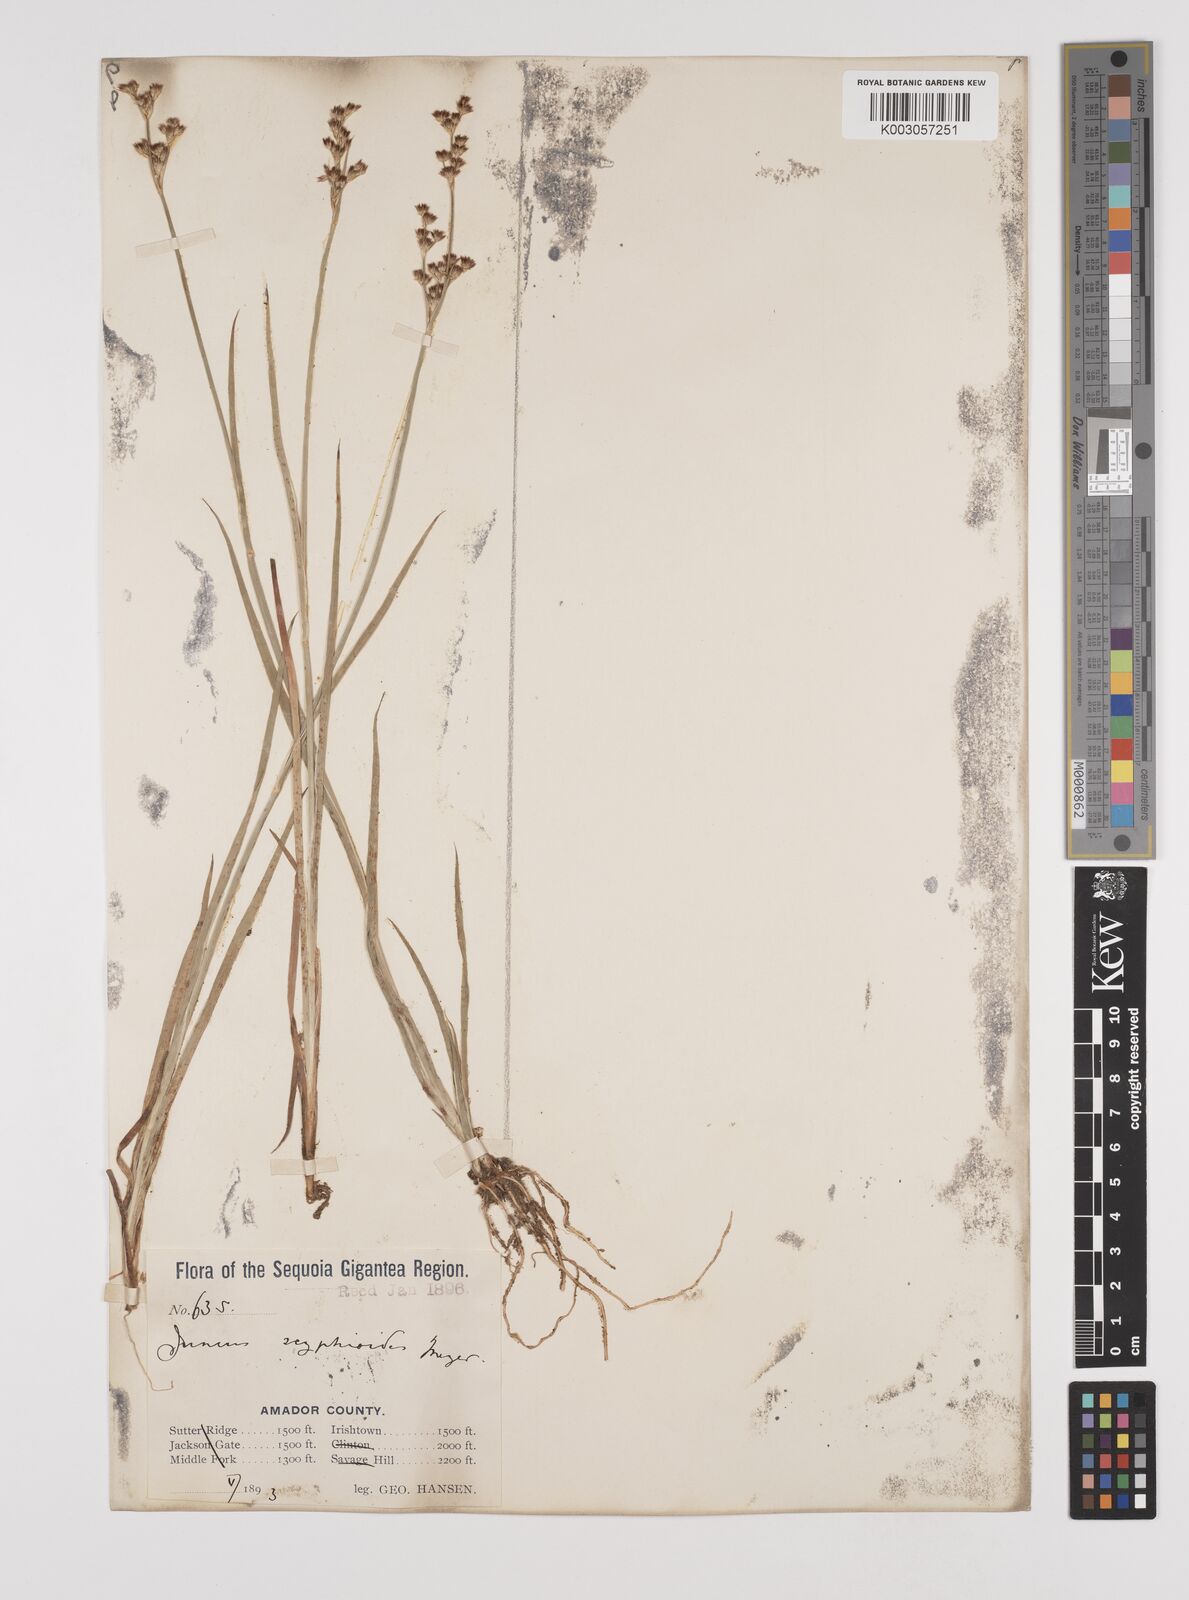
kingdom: Plantae
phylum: Tracheophyta
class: Liliopsida
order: Poales
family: Juncaceae
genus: Juncus
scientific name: Juncus xiphioides
